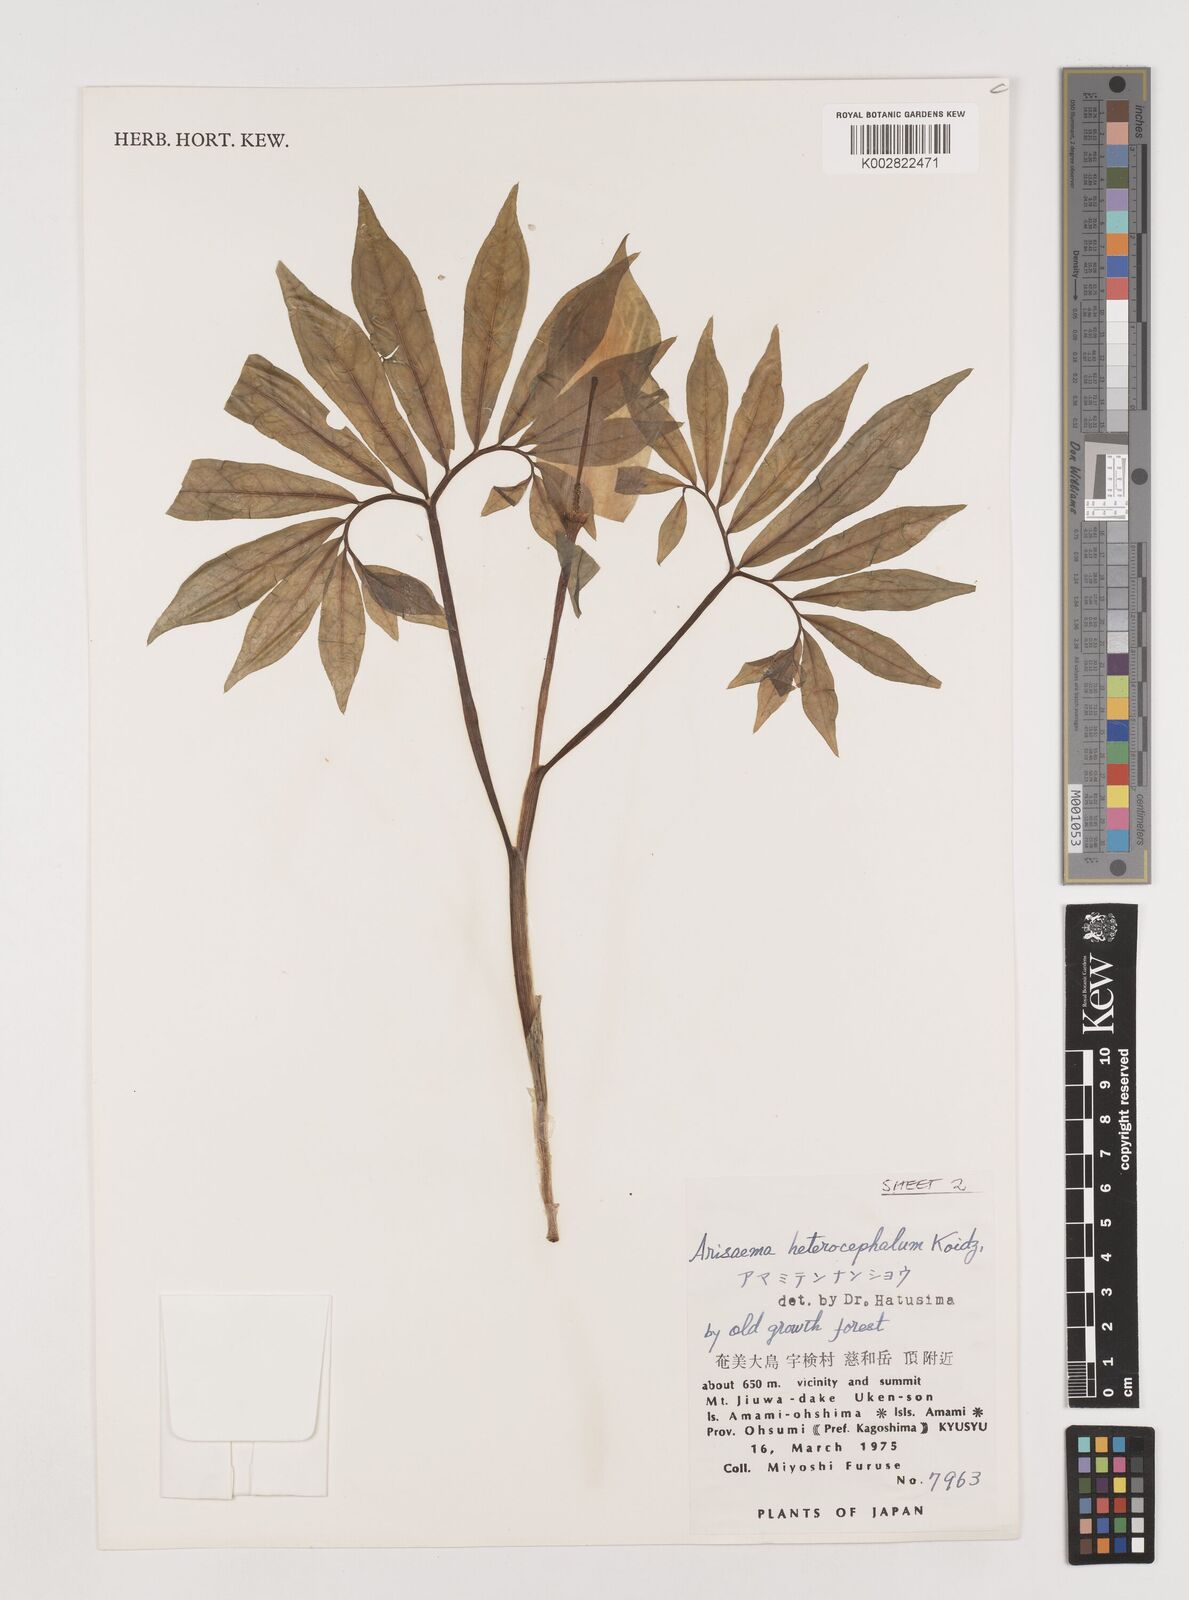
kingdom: Plantae
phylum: Tracheophyta
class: Liliopsida
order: Alismatales
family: Araceae
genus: Arisaema
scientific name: Arisaema heterocephalum
